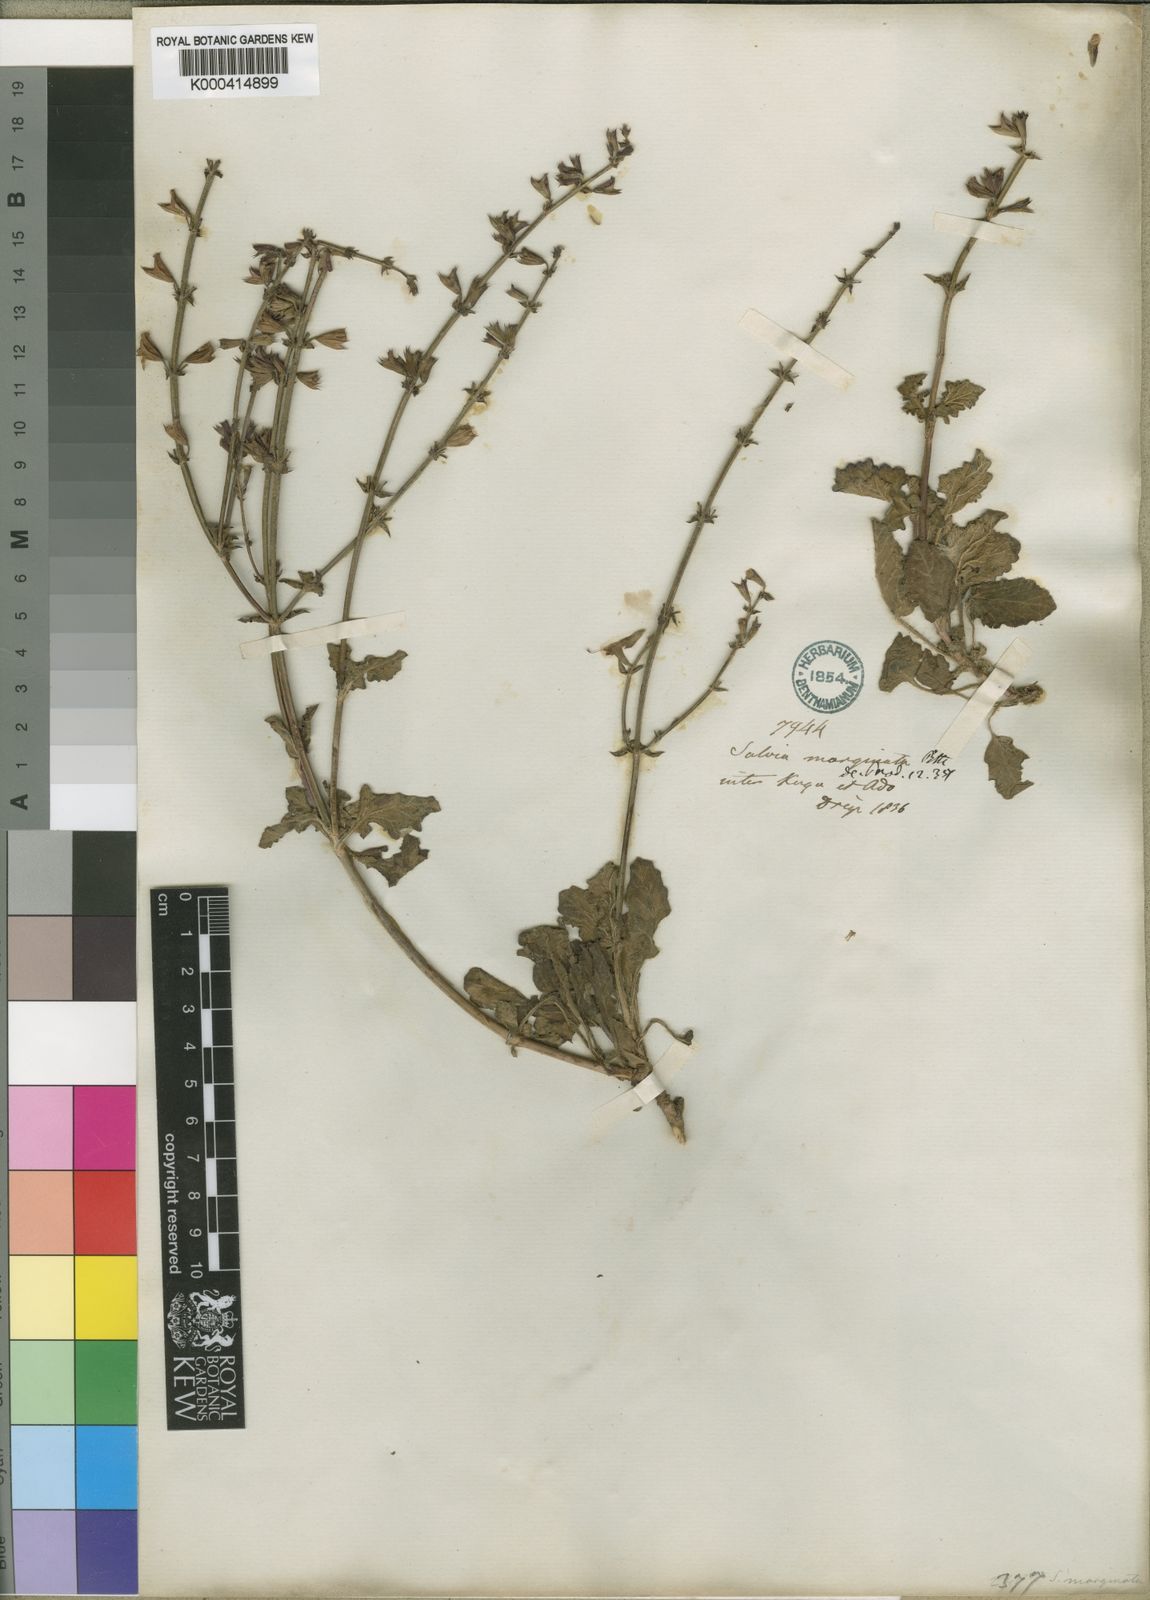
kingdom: Plantae
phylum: Tracheophyta
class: Magnoliopsida
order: Lamiales
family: Lamiaceae
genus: Salvia
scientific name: Salvia obtusata
